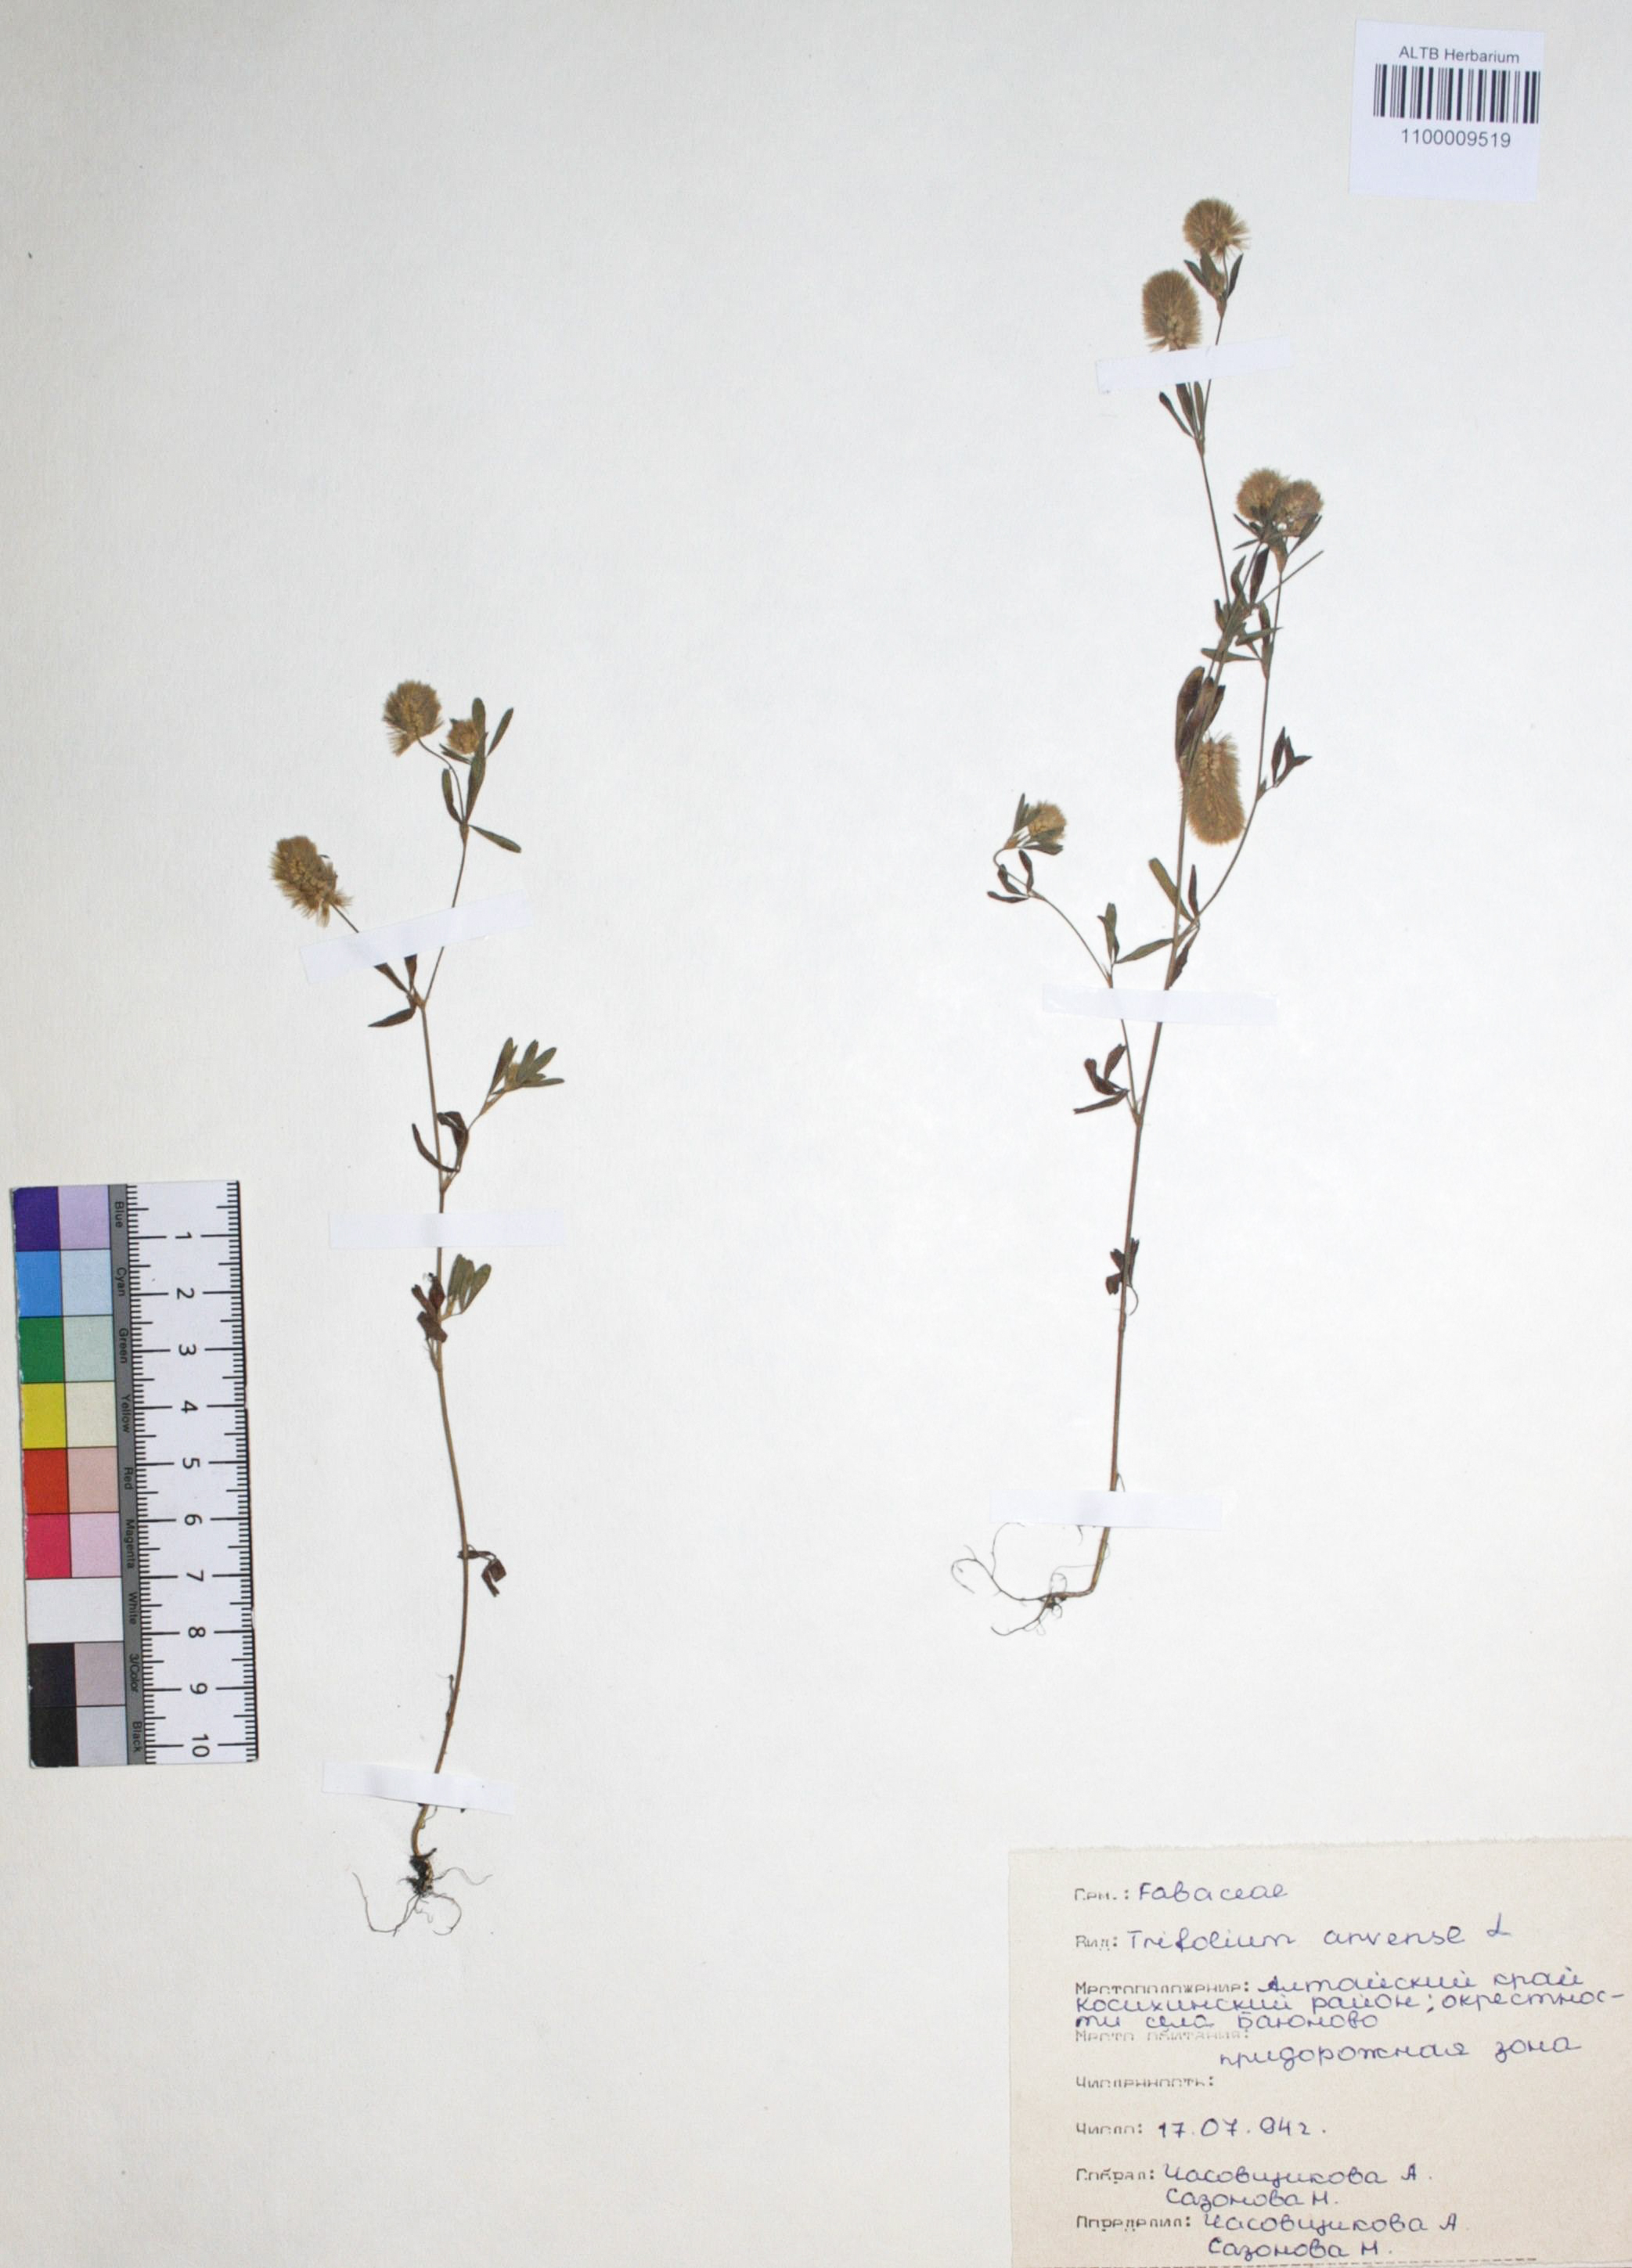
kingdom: Plantae
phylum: Tracheophyta
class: Magnoliopsida
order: Fabales
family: Fabaceae
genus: Trifolium
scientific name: Trifolium arvense
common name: Hare's-foot clover
